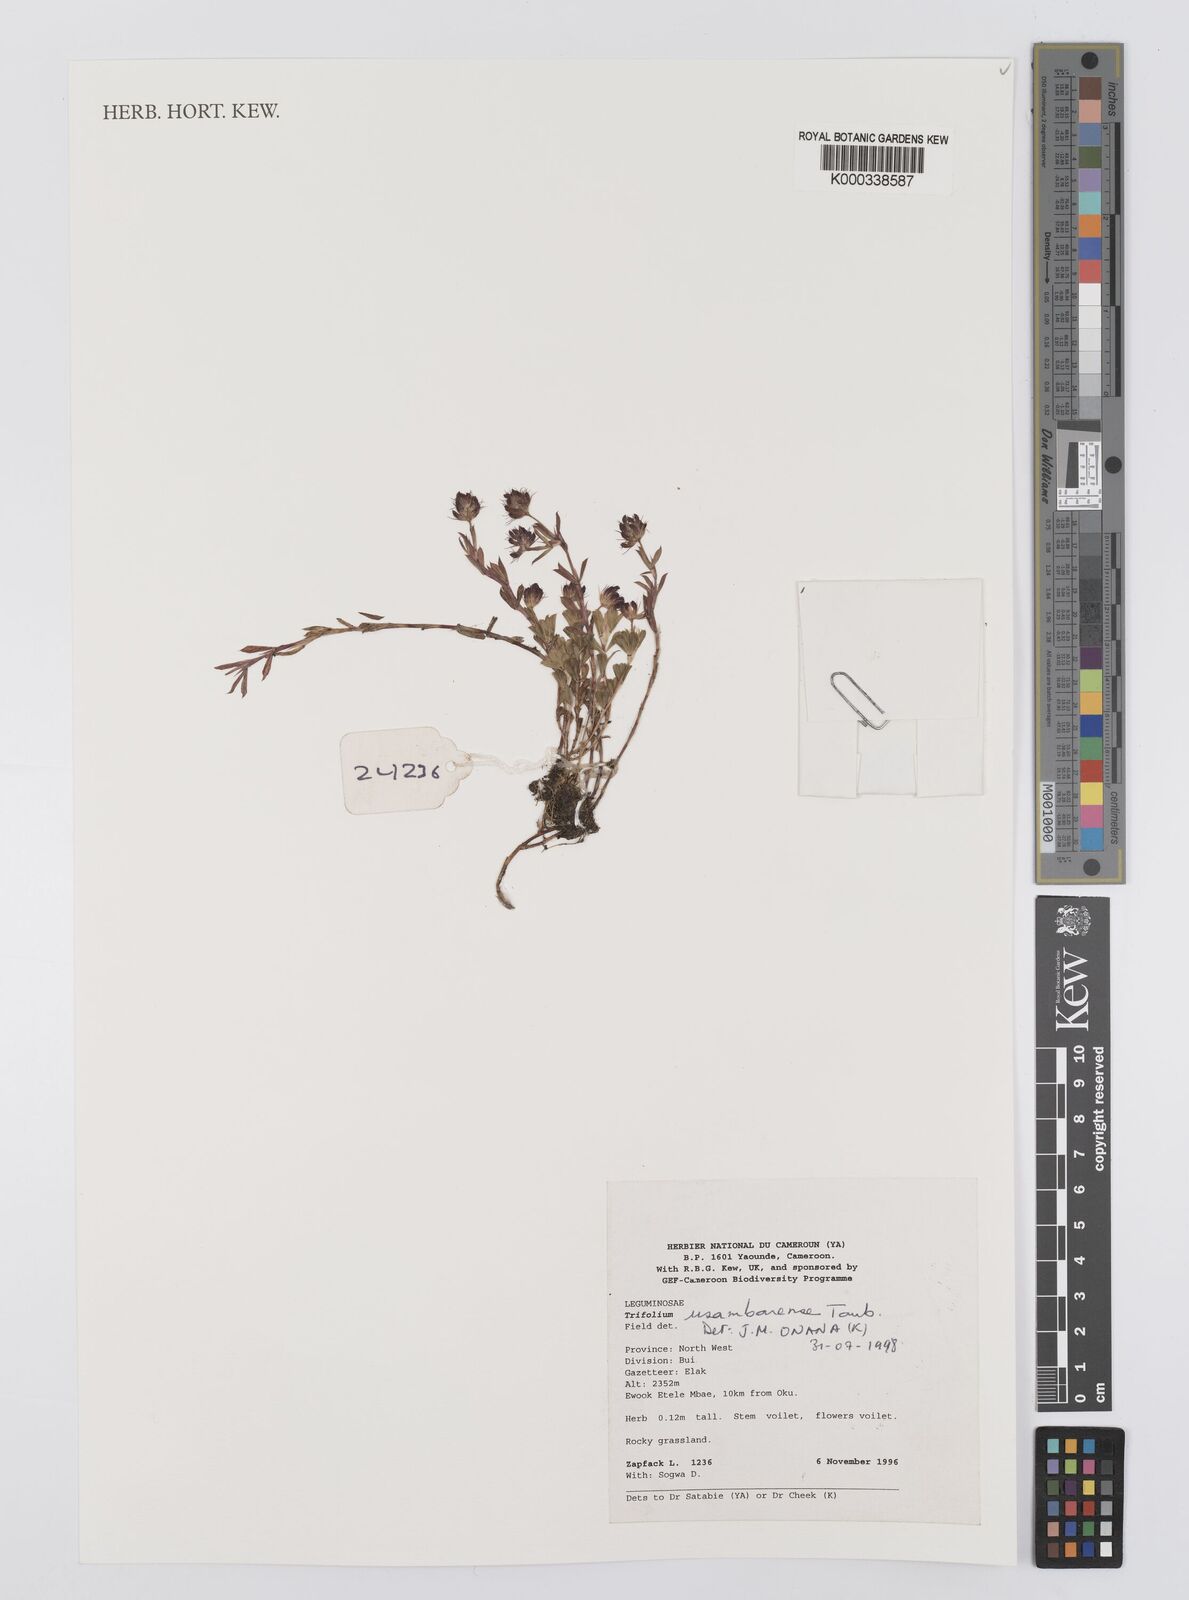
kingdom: Plantae
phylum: Tracheophyta
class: Magnoliopsida
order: Fabales
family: Fabaceae
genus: Trifolium
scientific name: Trifolium usambarense
